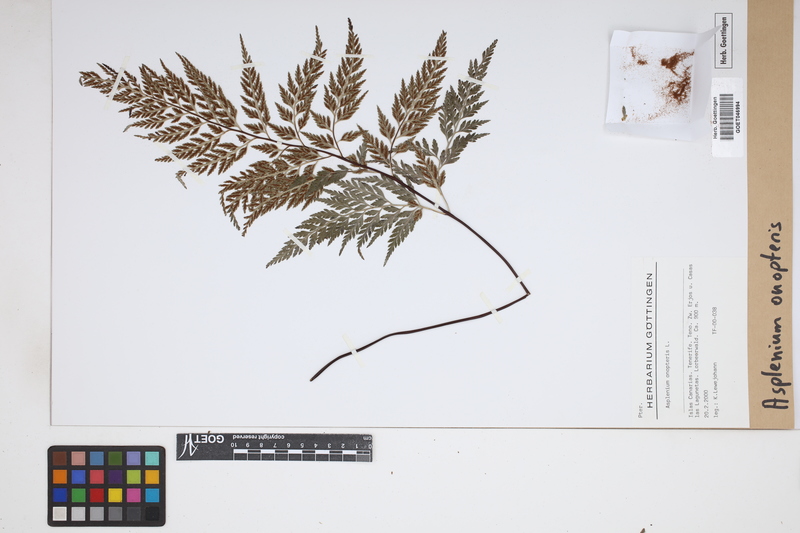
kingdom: Plantae
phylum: Tracheophyta
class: Polypodiopsida
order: Polypodiales
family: Aspleniaceae
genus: Asplenium
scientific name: Asplenium onopteris
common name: Irish spleenwort
